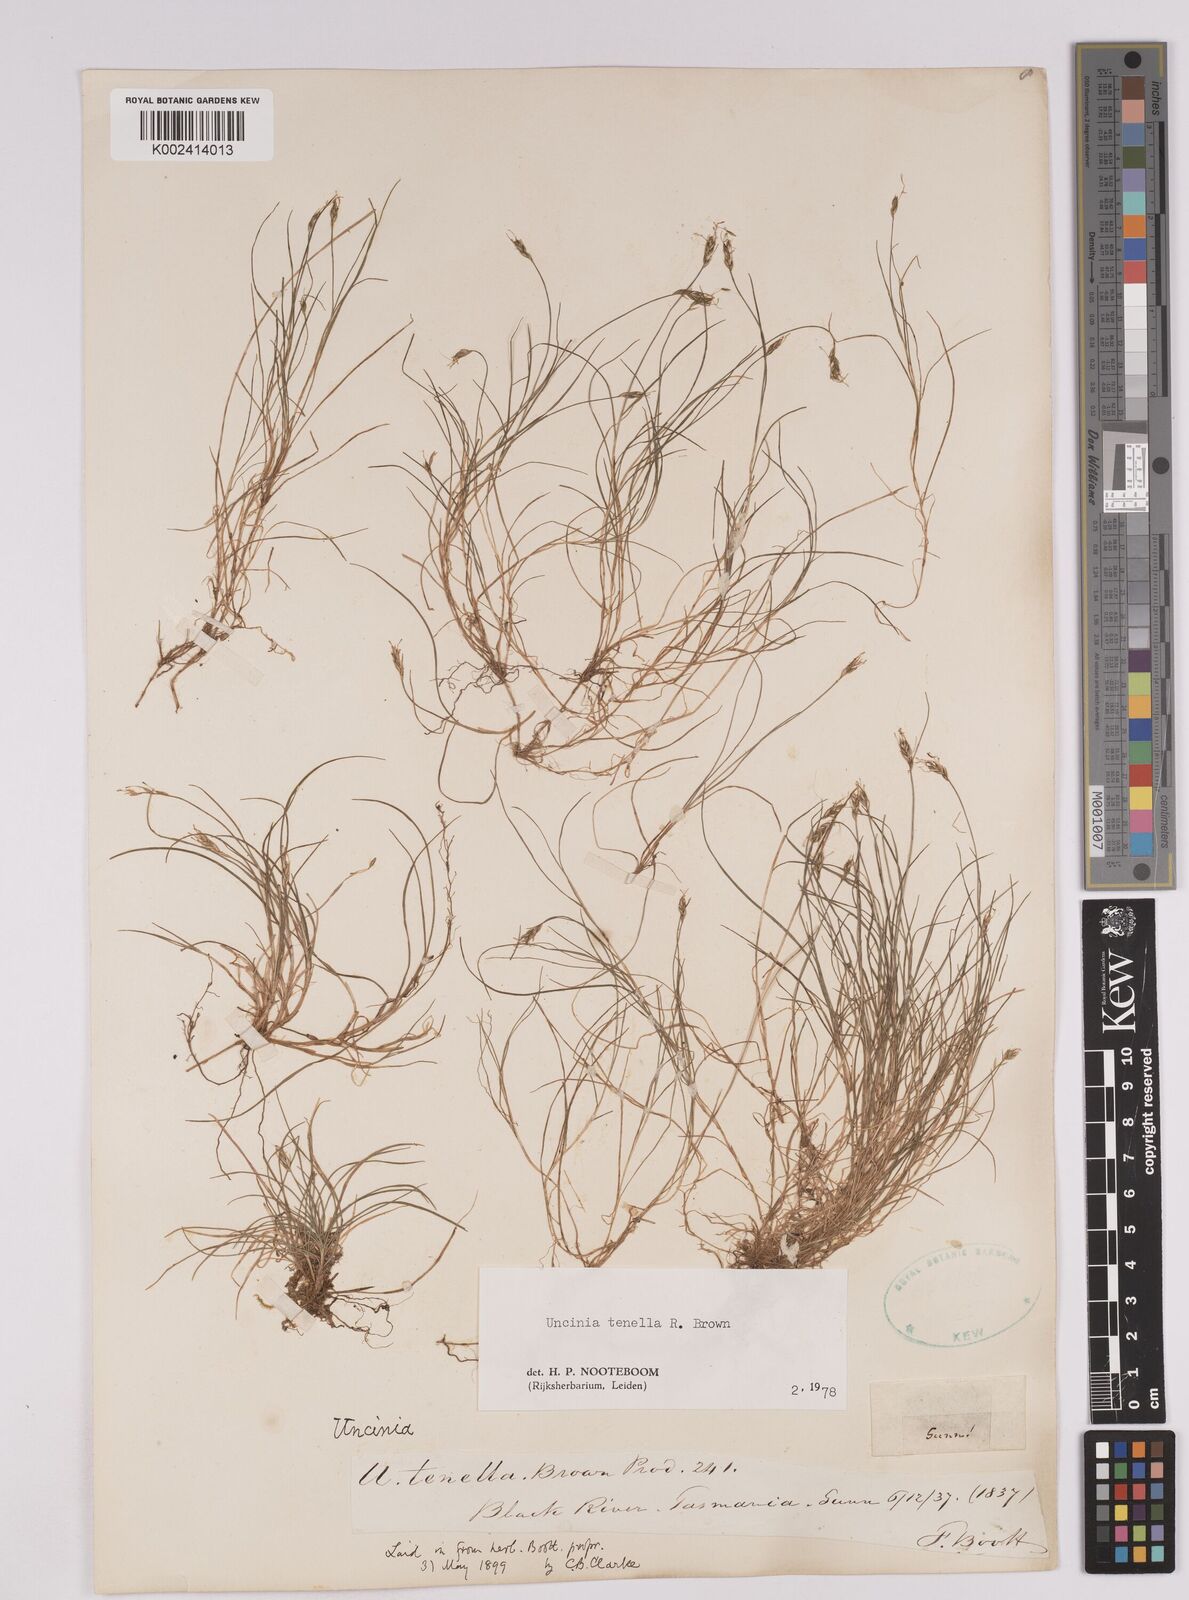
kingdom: Plantae
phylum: Tracheophyta
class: Liliopsida
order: Poales
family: Cyperaceae
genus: Carex
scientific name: Carex austrotenella
